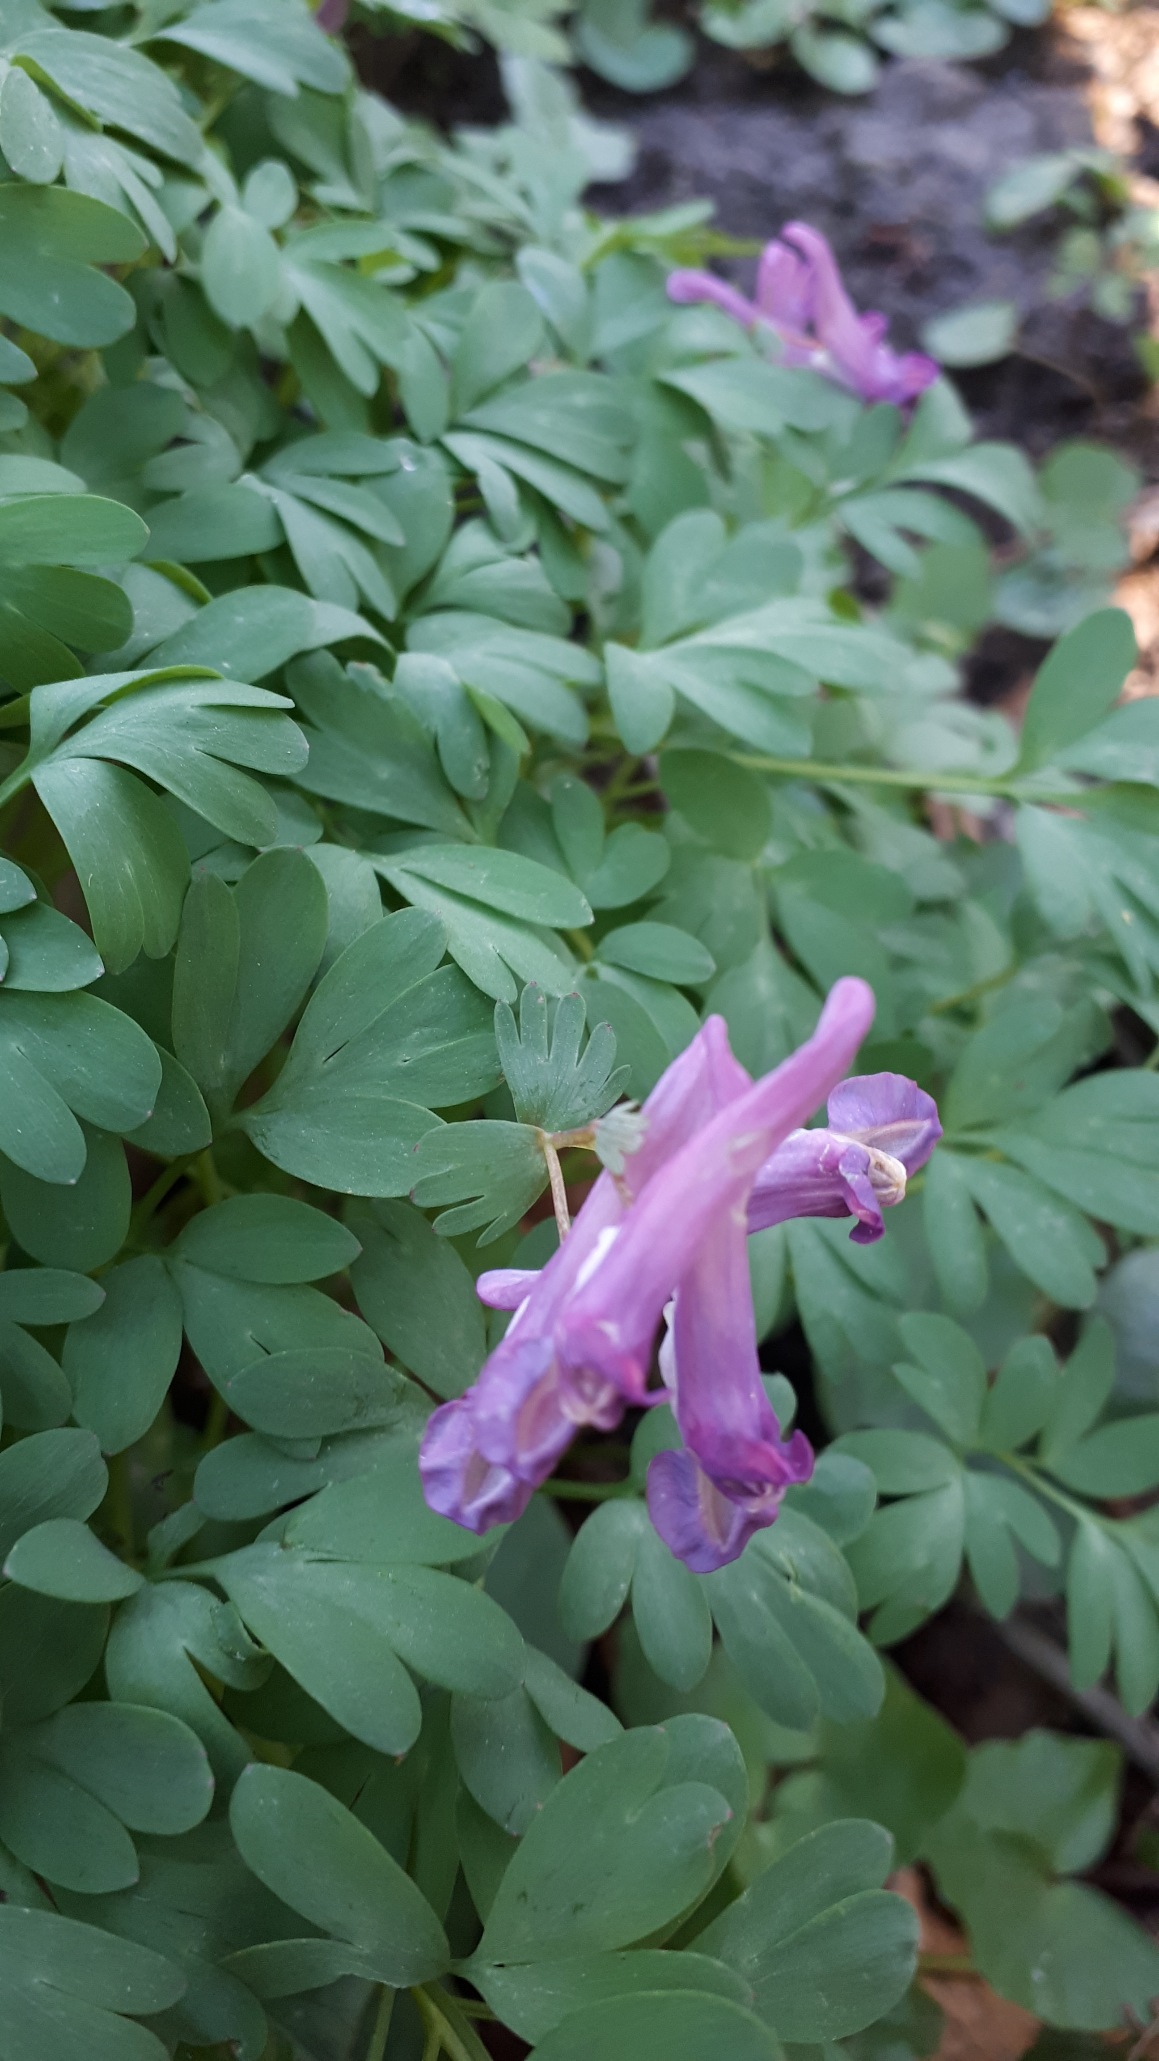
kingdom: Plantae
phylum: Tracheophyta
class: Magnoliopsida
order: Ranunculales
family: Papaveraceae
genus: Corydalis
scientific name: Corydalis solida
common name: Langstilket lærkespore
